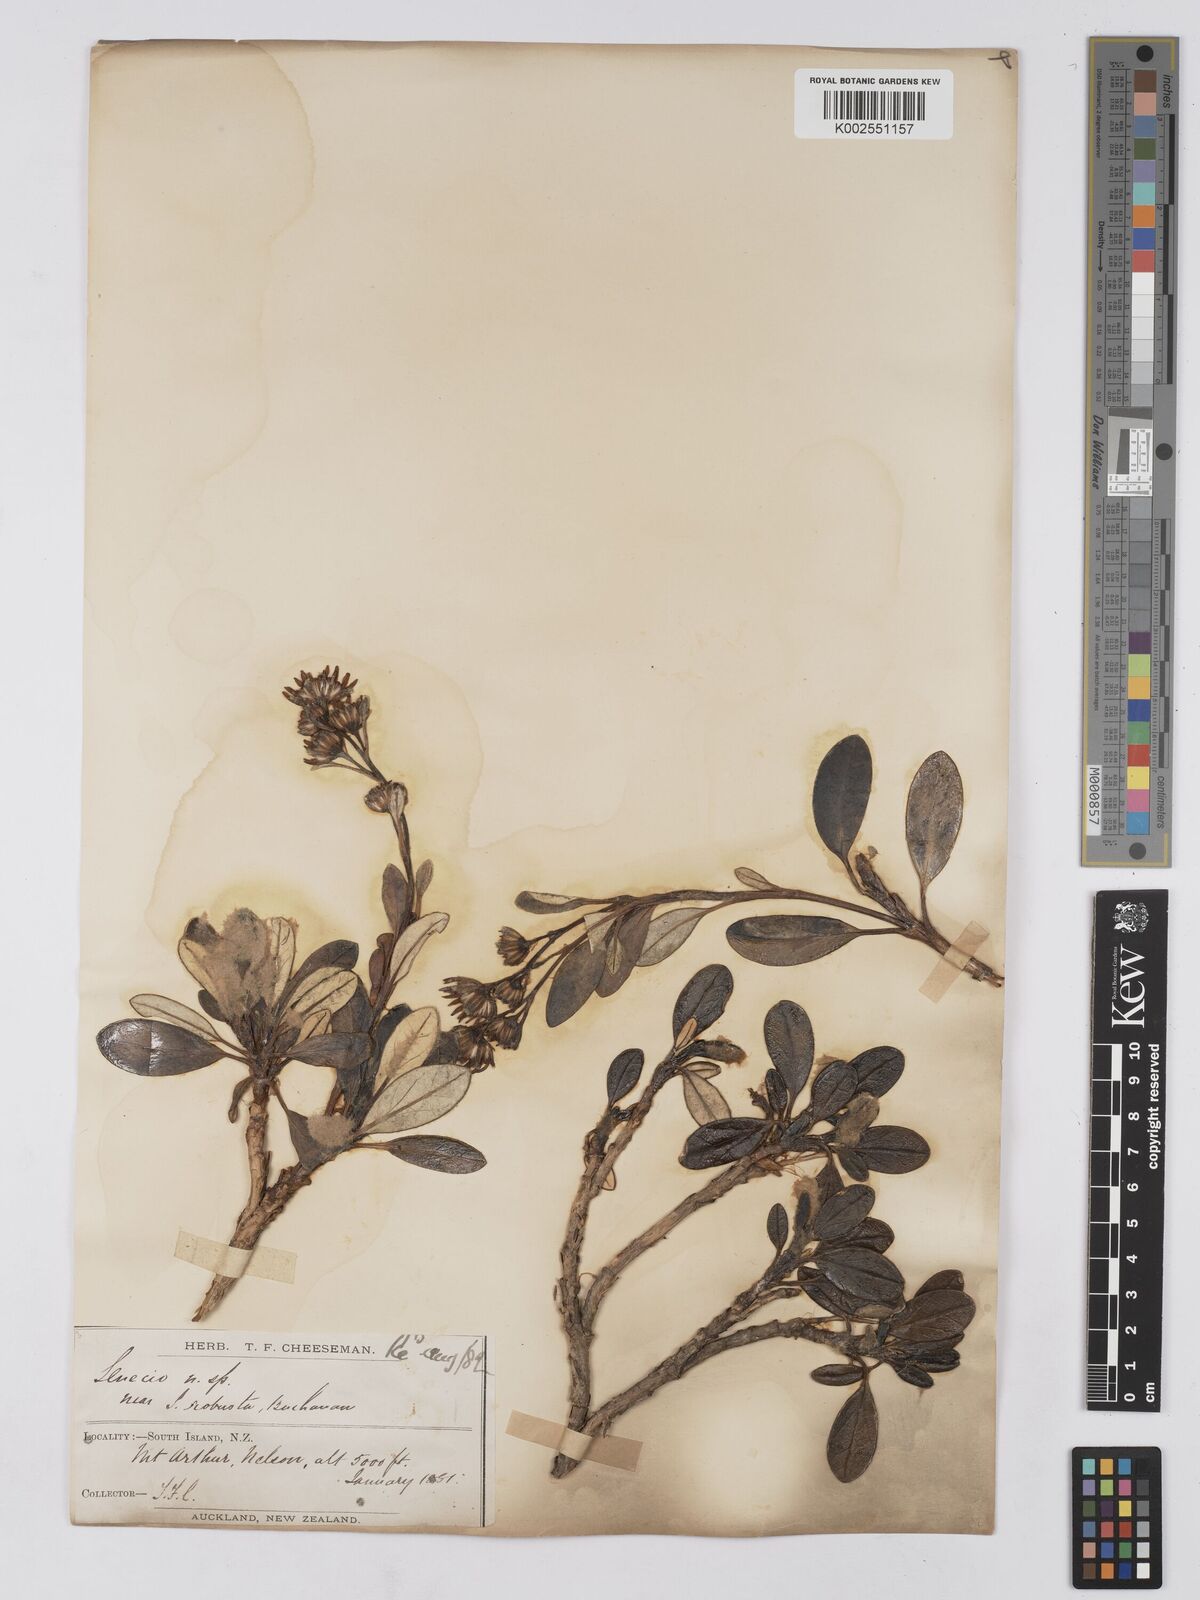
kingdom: Plantae
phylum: Tracheophyta
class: Magnoliopsida
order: Asterales
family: Asteraceae
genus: Brachyglottis
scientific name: Brachyglottis
